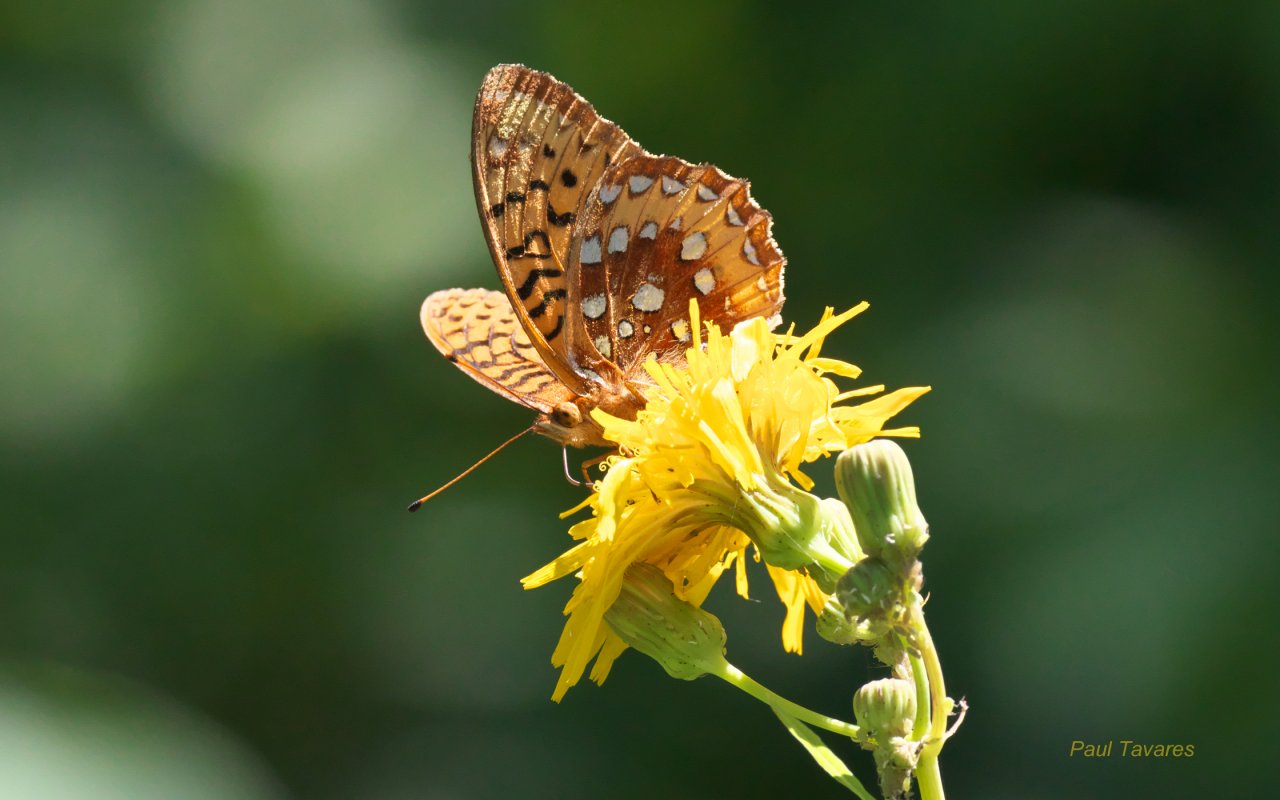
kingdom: Animalia
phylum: Arthropoda
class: Insecta
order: Lepidoptera
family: Nymphalidae
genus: Speyeria
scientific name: Speyeria cybele
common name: Great Spangled Fritillary
